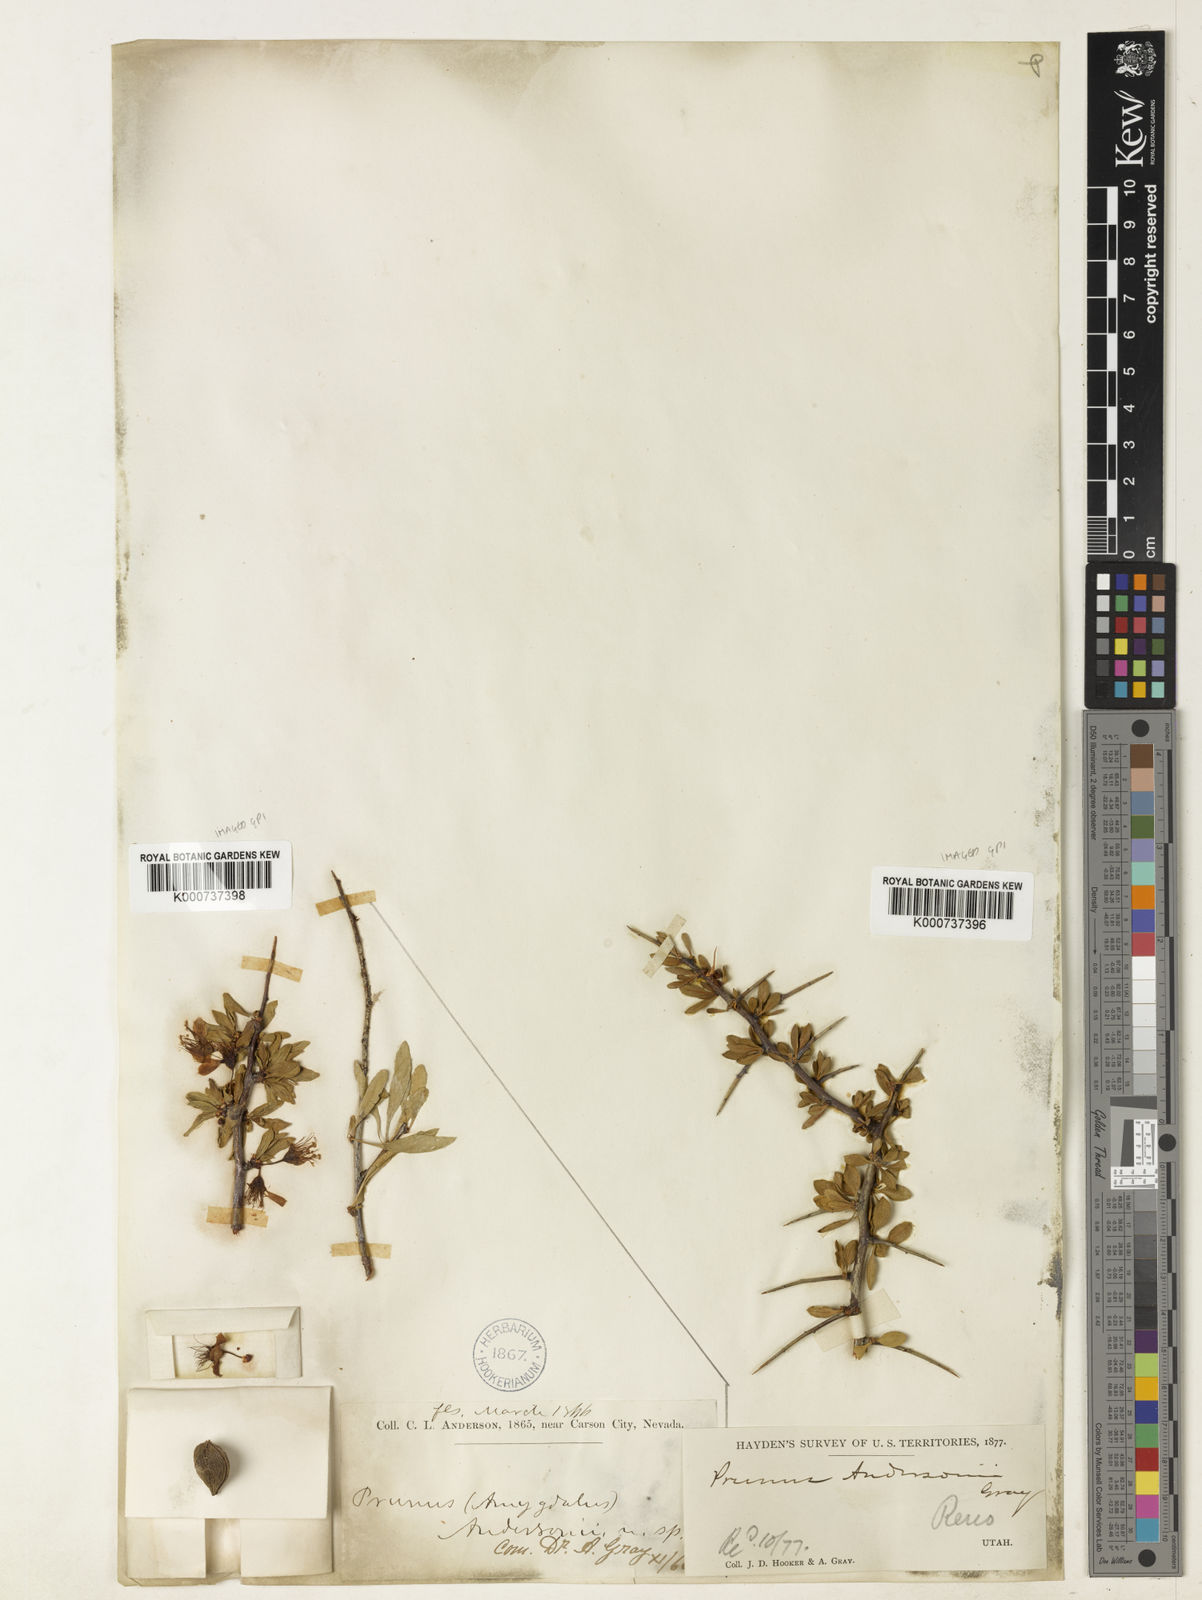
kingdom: Plantae
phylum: Tracheophyta
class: Magnoliopsida
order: Rosales
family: Rosaceae
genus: Prunus
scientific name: Prunus andersonii
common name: Desert peach
